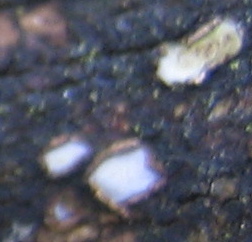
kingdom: Fungi
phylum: Ascomycota
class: Leotiomycetes
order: Chaetomellales
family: Marthamycetaceae
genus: Propolis
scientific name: Propolis farinosa
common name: almindelig vedsprængerskive
